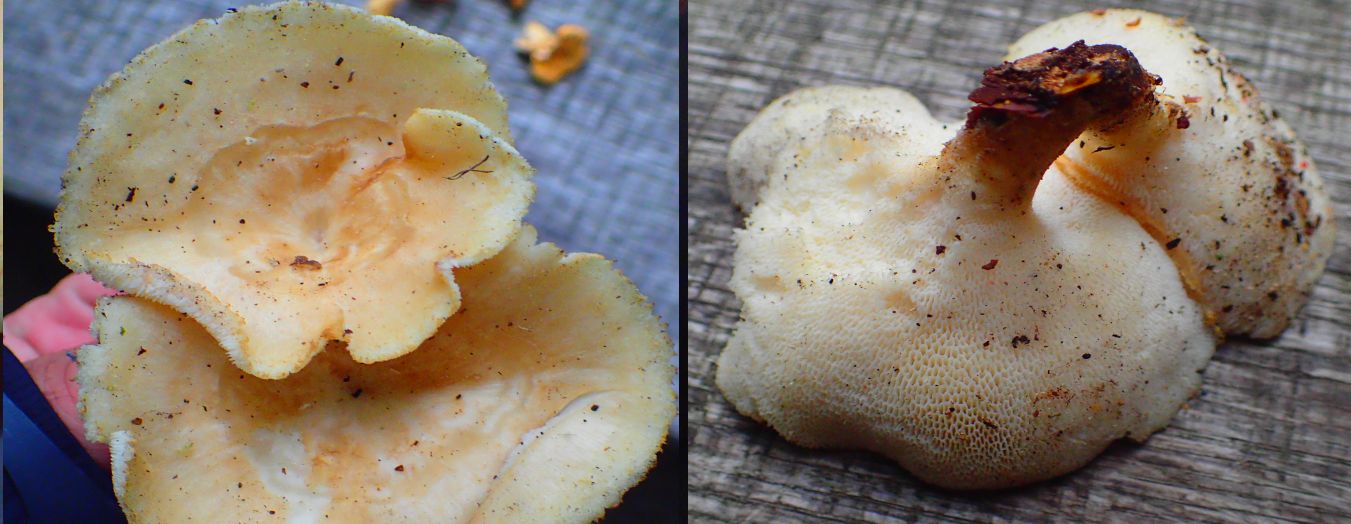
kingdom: Fungi
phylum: Basidiomycota
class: Agaricomycetes
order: Polyporales
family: Polyporaceae
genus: Polyporus
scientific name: Polyporus tuberaster
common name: knoldet stilkporesvamp
